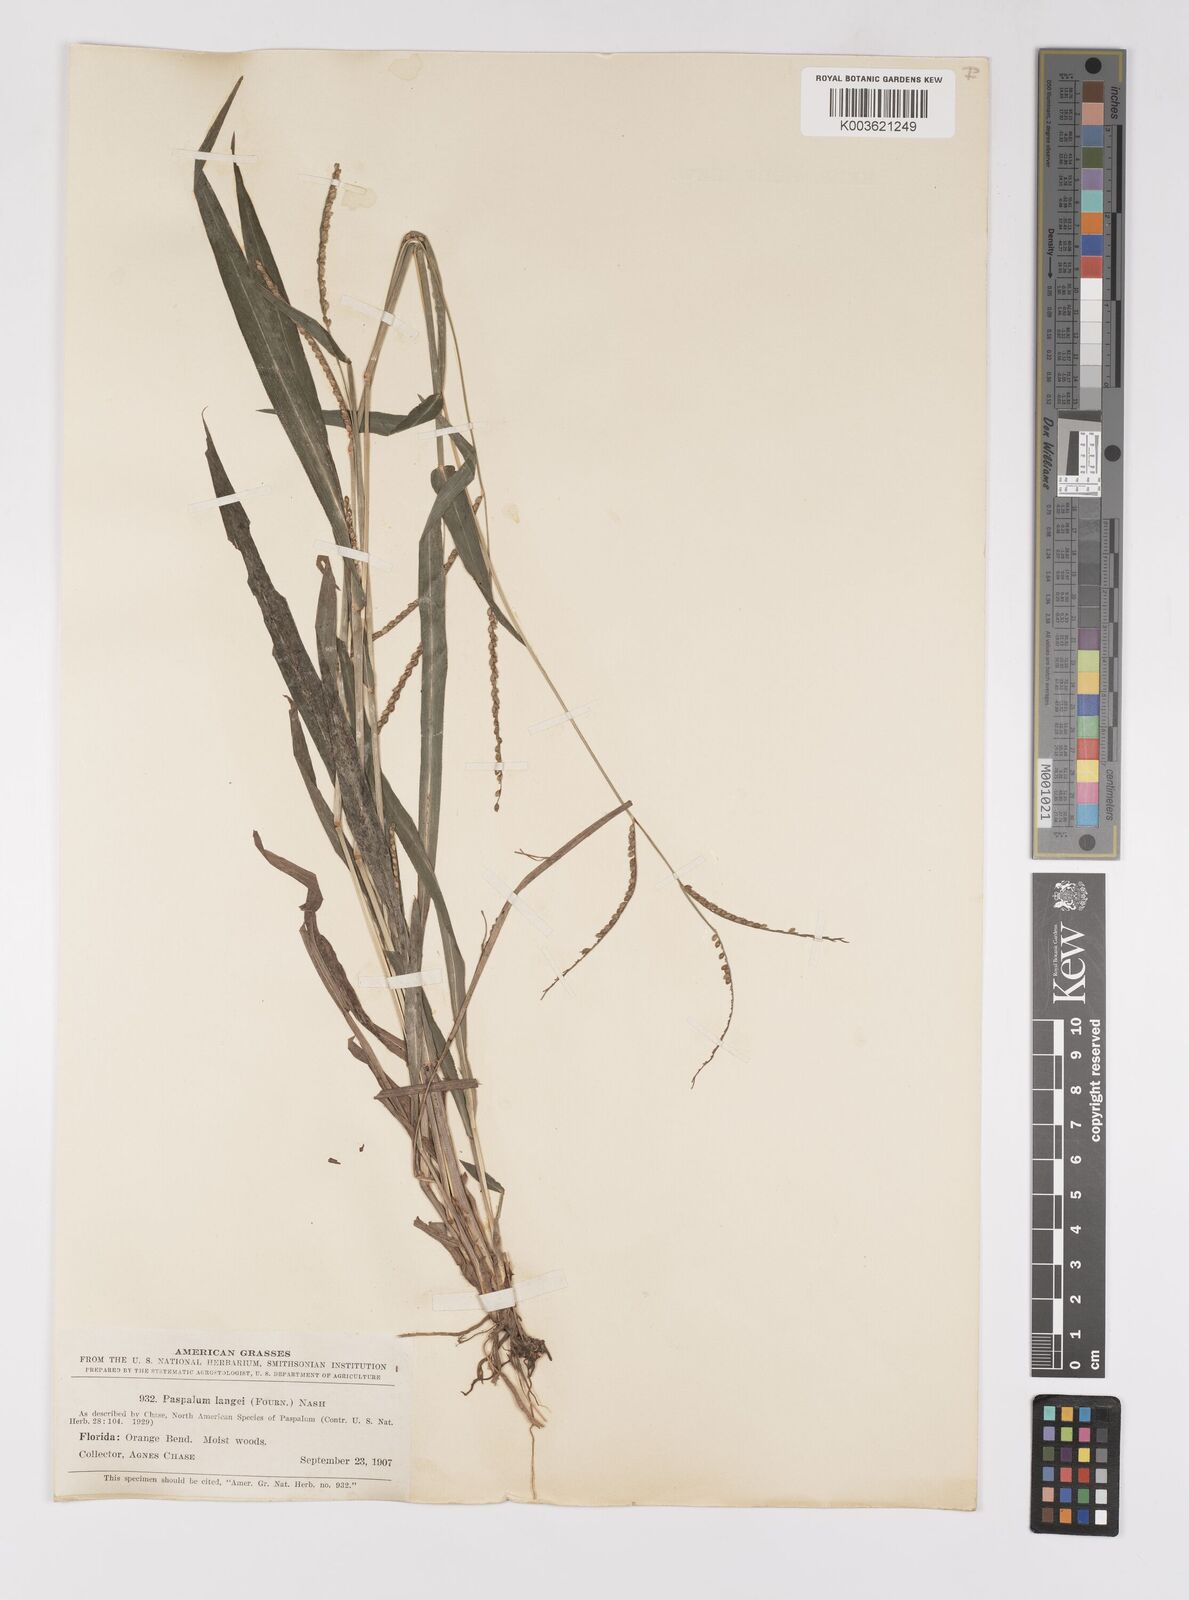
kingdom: Plantae
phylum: Tracheophyta
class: Liliopsida
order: Poales
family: Poaceae
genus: Paspalum
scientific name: Paspalum langei
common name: Rusty-seed paspalum
